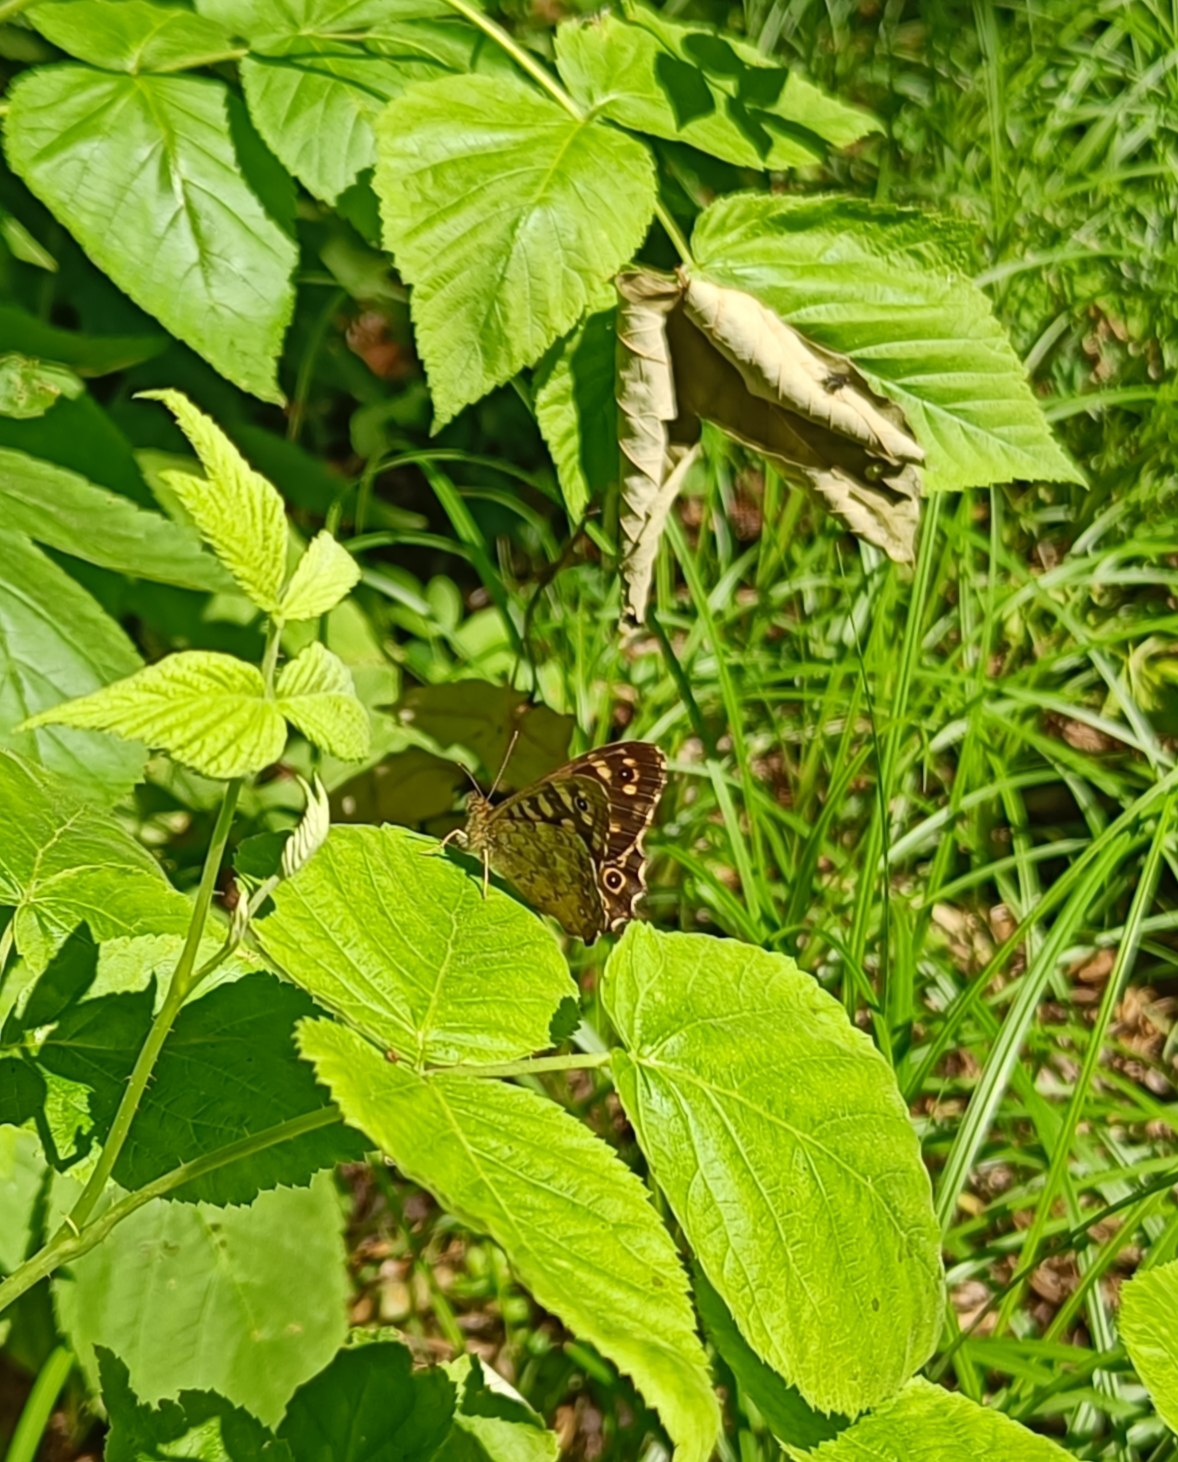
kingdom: Animalia
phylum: Arthropoda
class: Insecta
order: Lepidoptera
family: Nymphalidae
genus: Pararge
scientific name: Pararge aegeria
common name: Skovrandøje
